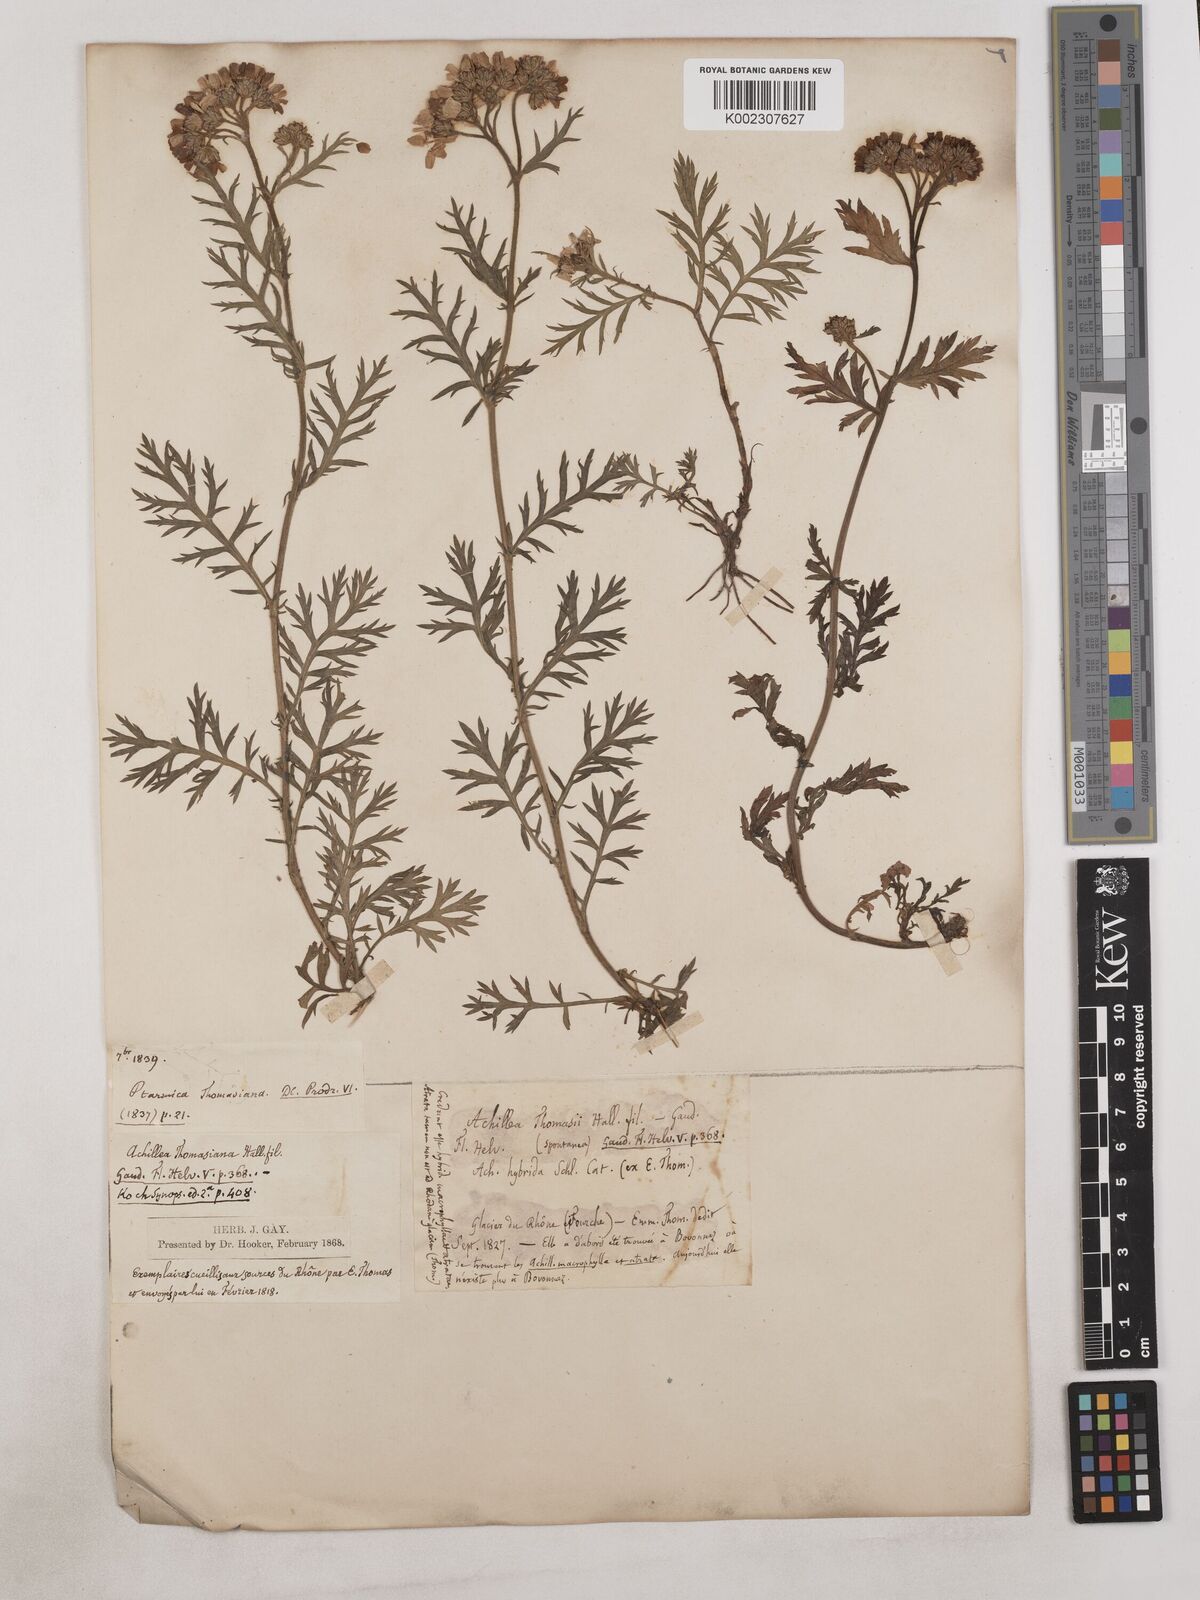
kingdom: Plantae
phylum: Tracheophyta
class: Magnoliopsida
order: Asterales
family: Asteraceae
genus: Achillea
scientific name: Achillea thomasiana ex
